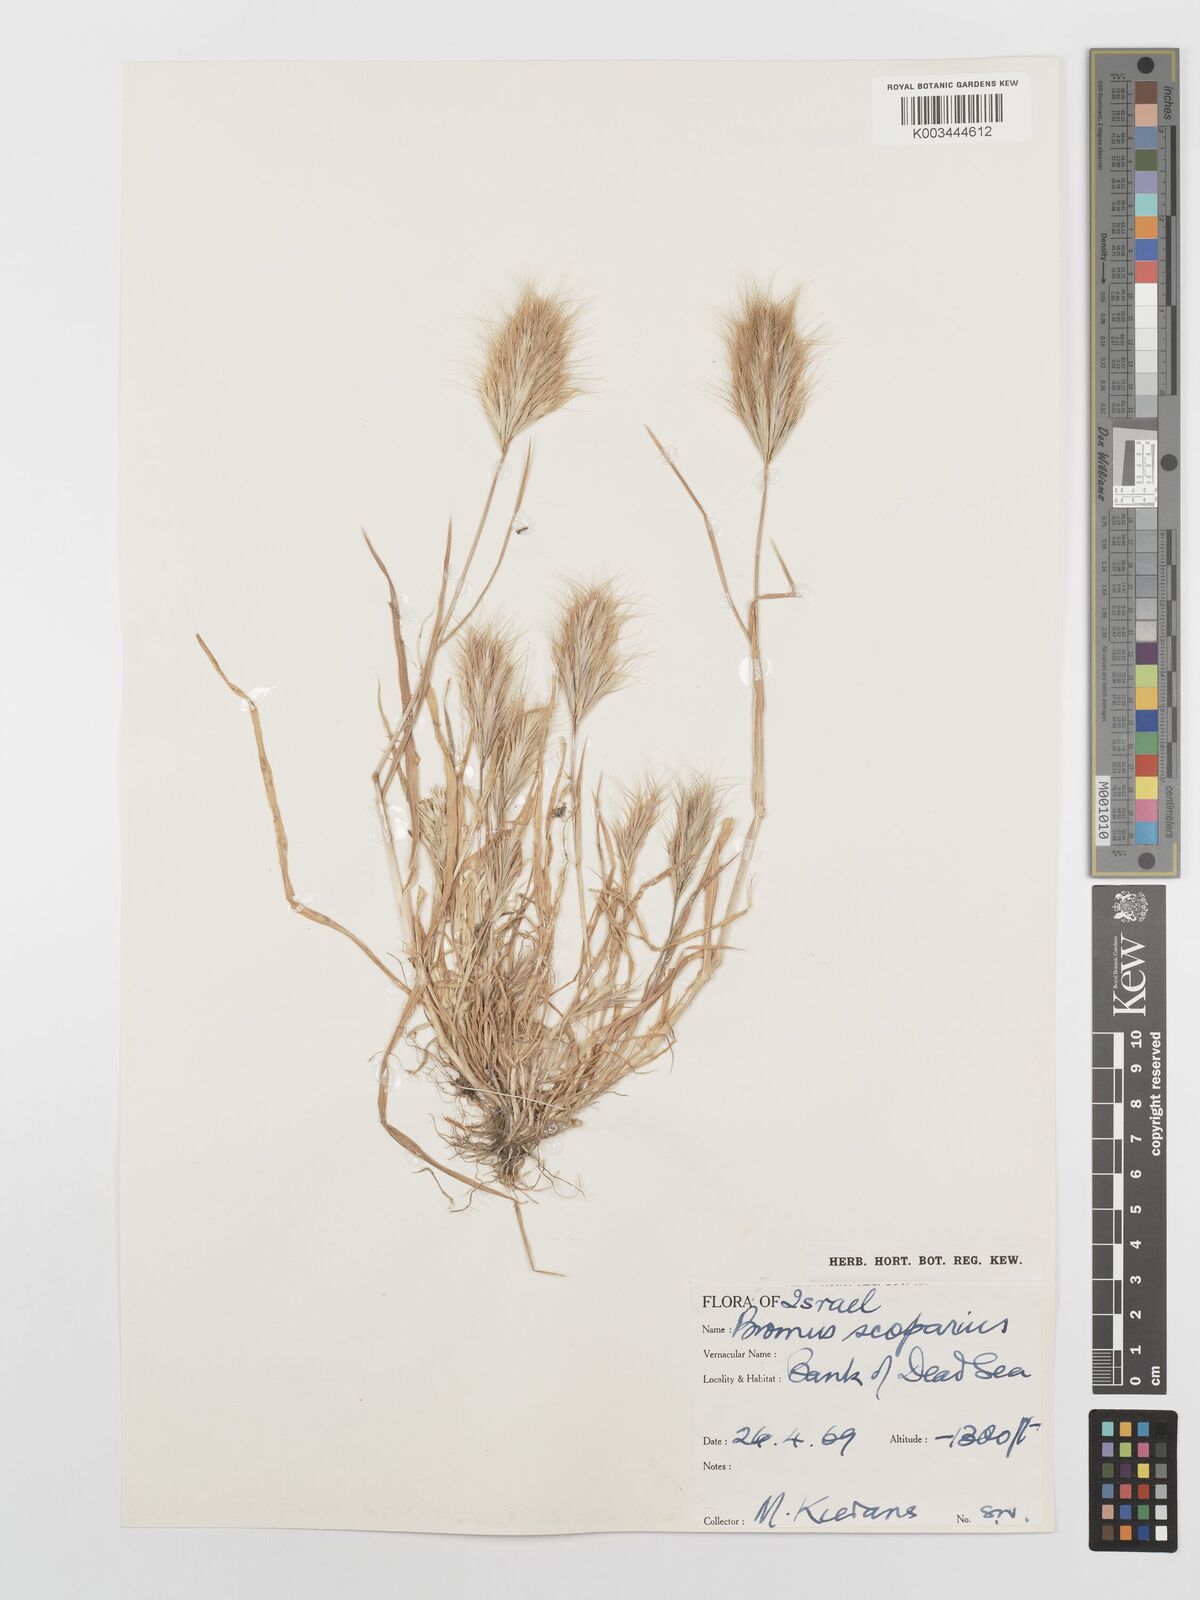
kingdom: Plantae
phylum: Tracheophyta
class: Liliopsida
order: Poales
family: Poaceae
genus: Bromus
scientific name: Bromus scoparius
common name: Broom brome
